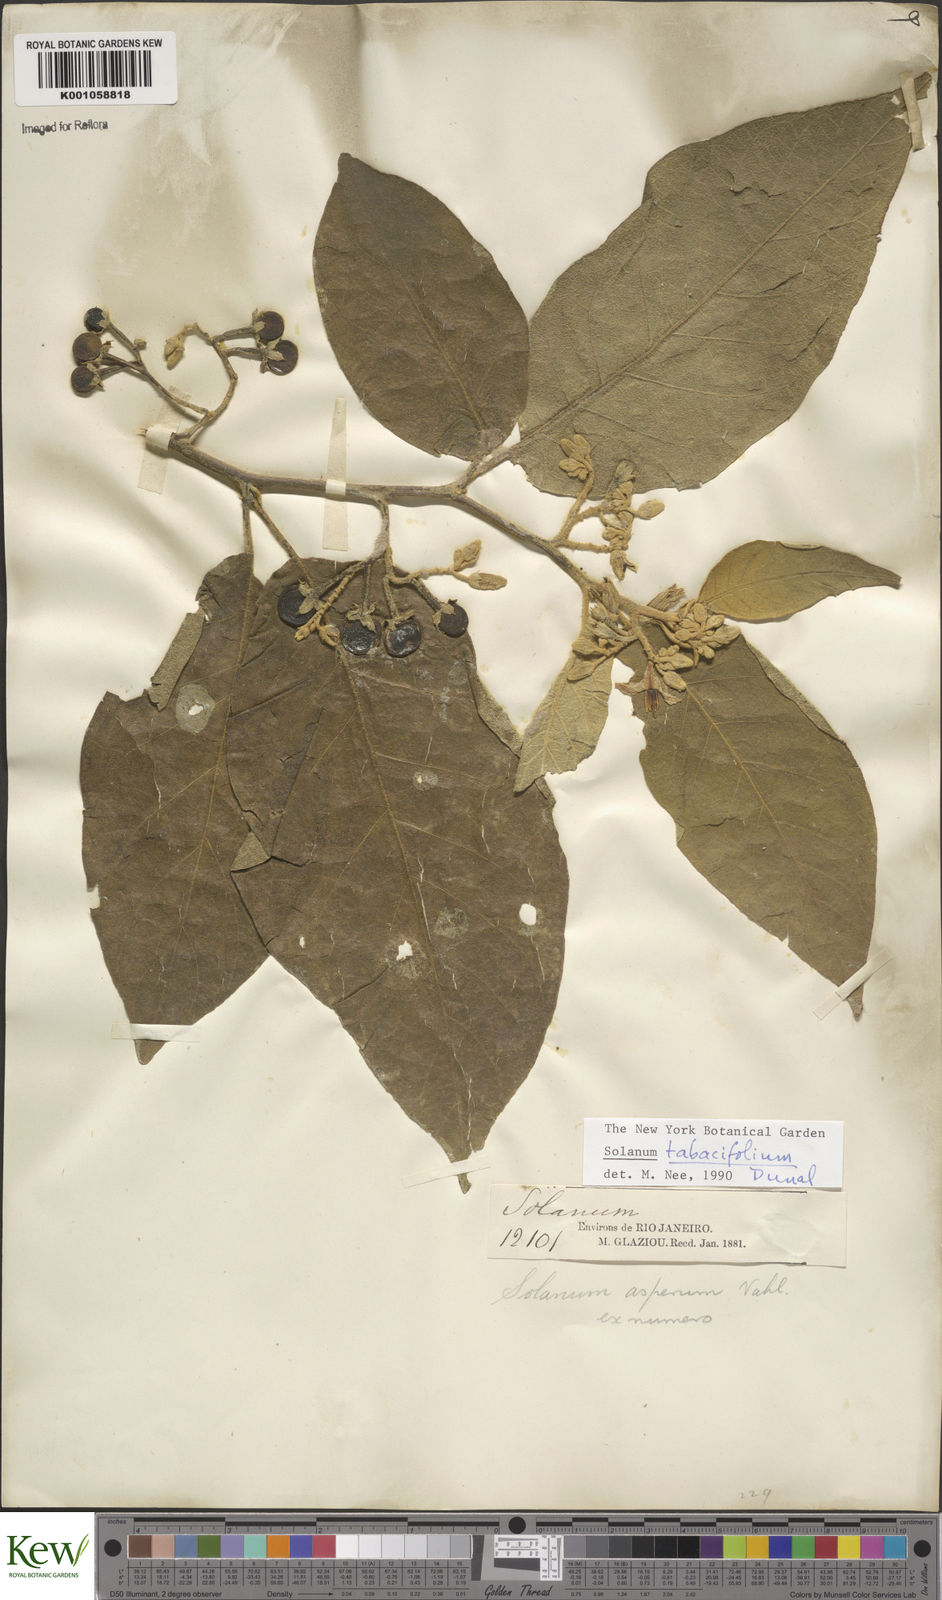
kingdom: Plantae
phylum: Tracheophyta
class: Magnoliopsida
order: Solanales
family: Solanaceae
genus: Solanum
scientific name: Solanum scuticum
